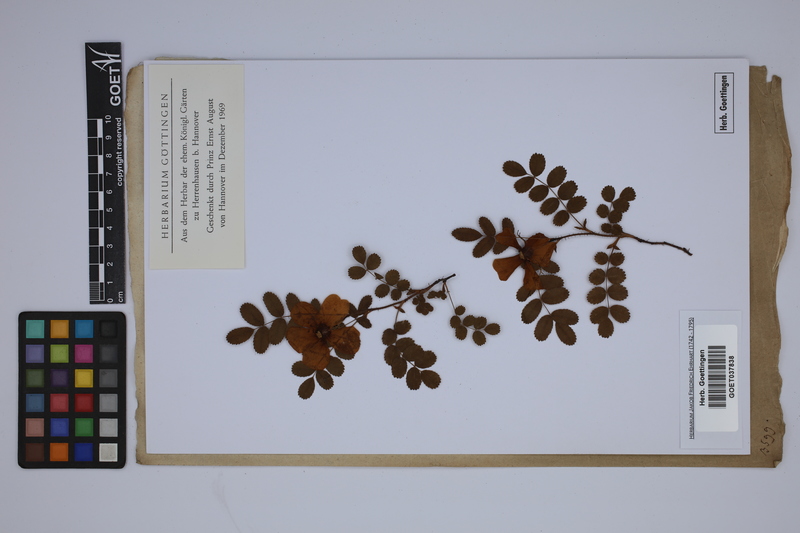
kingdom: Plantae
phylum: Tracheophyta
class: Magnoliopsida
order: Rosales
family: Rosaceae
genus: Rosa
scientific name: Rosa spinosissima
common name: Burnet rose
